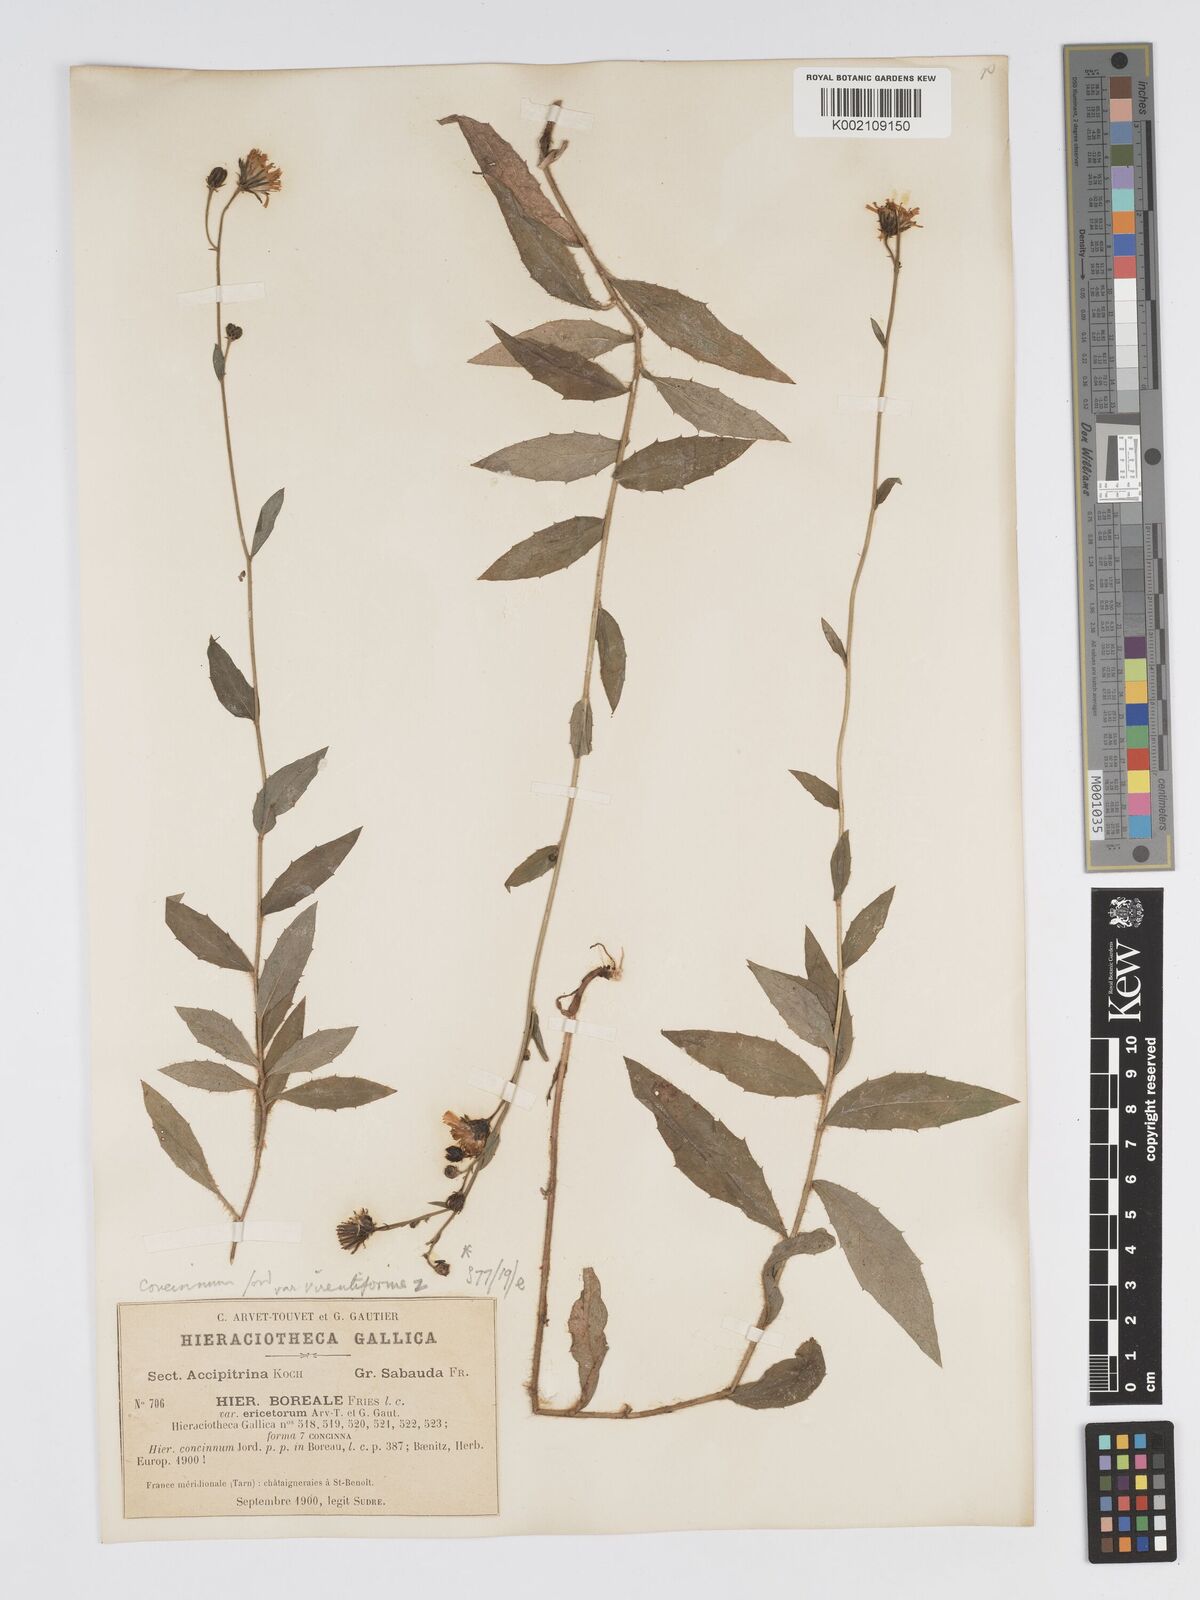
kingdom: Plantae
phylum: Tracheophyta
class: Magnoliopsida
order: Asterales
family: Asteraceae
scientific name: Asteraceae
